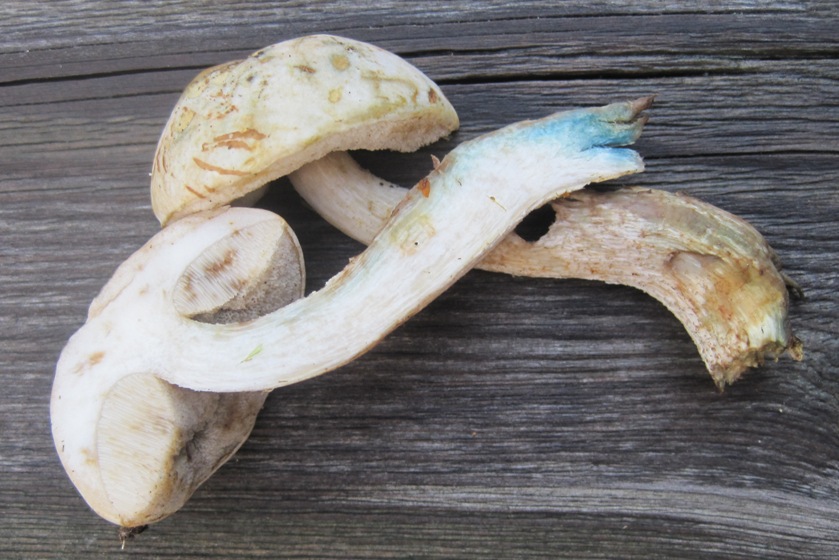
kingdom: Fungi
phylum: Basidiomycota
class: Agaricomycetes
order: Boletales
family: Boletaceae
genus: Leccinum
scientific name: Leccinum scabrum
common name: hvid skælrørhat
